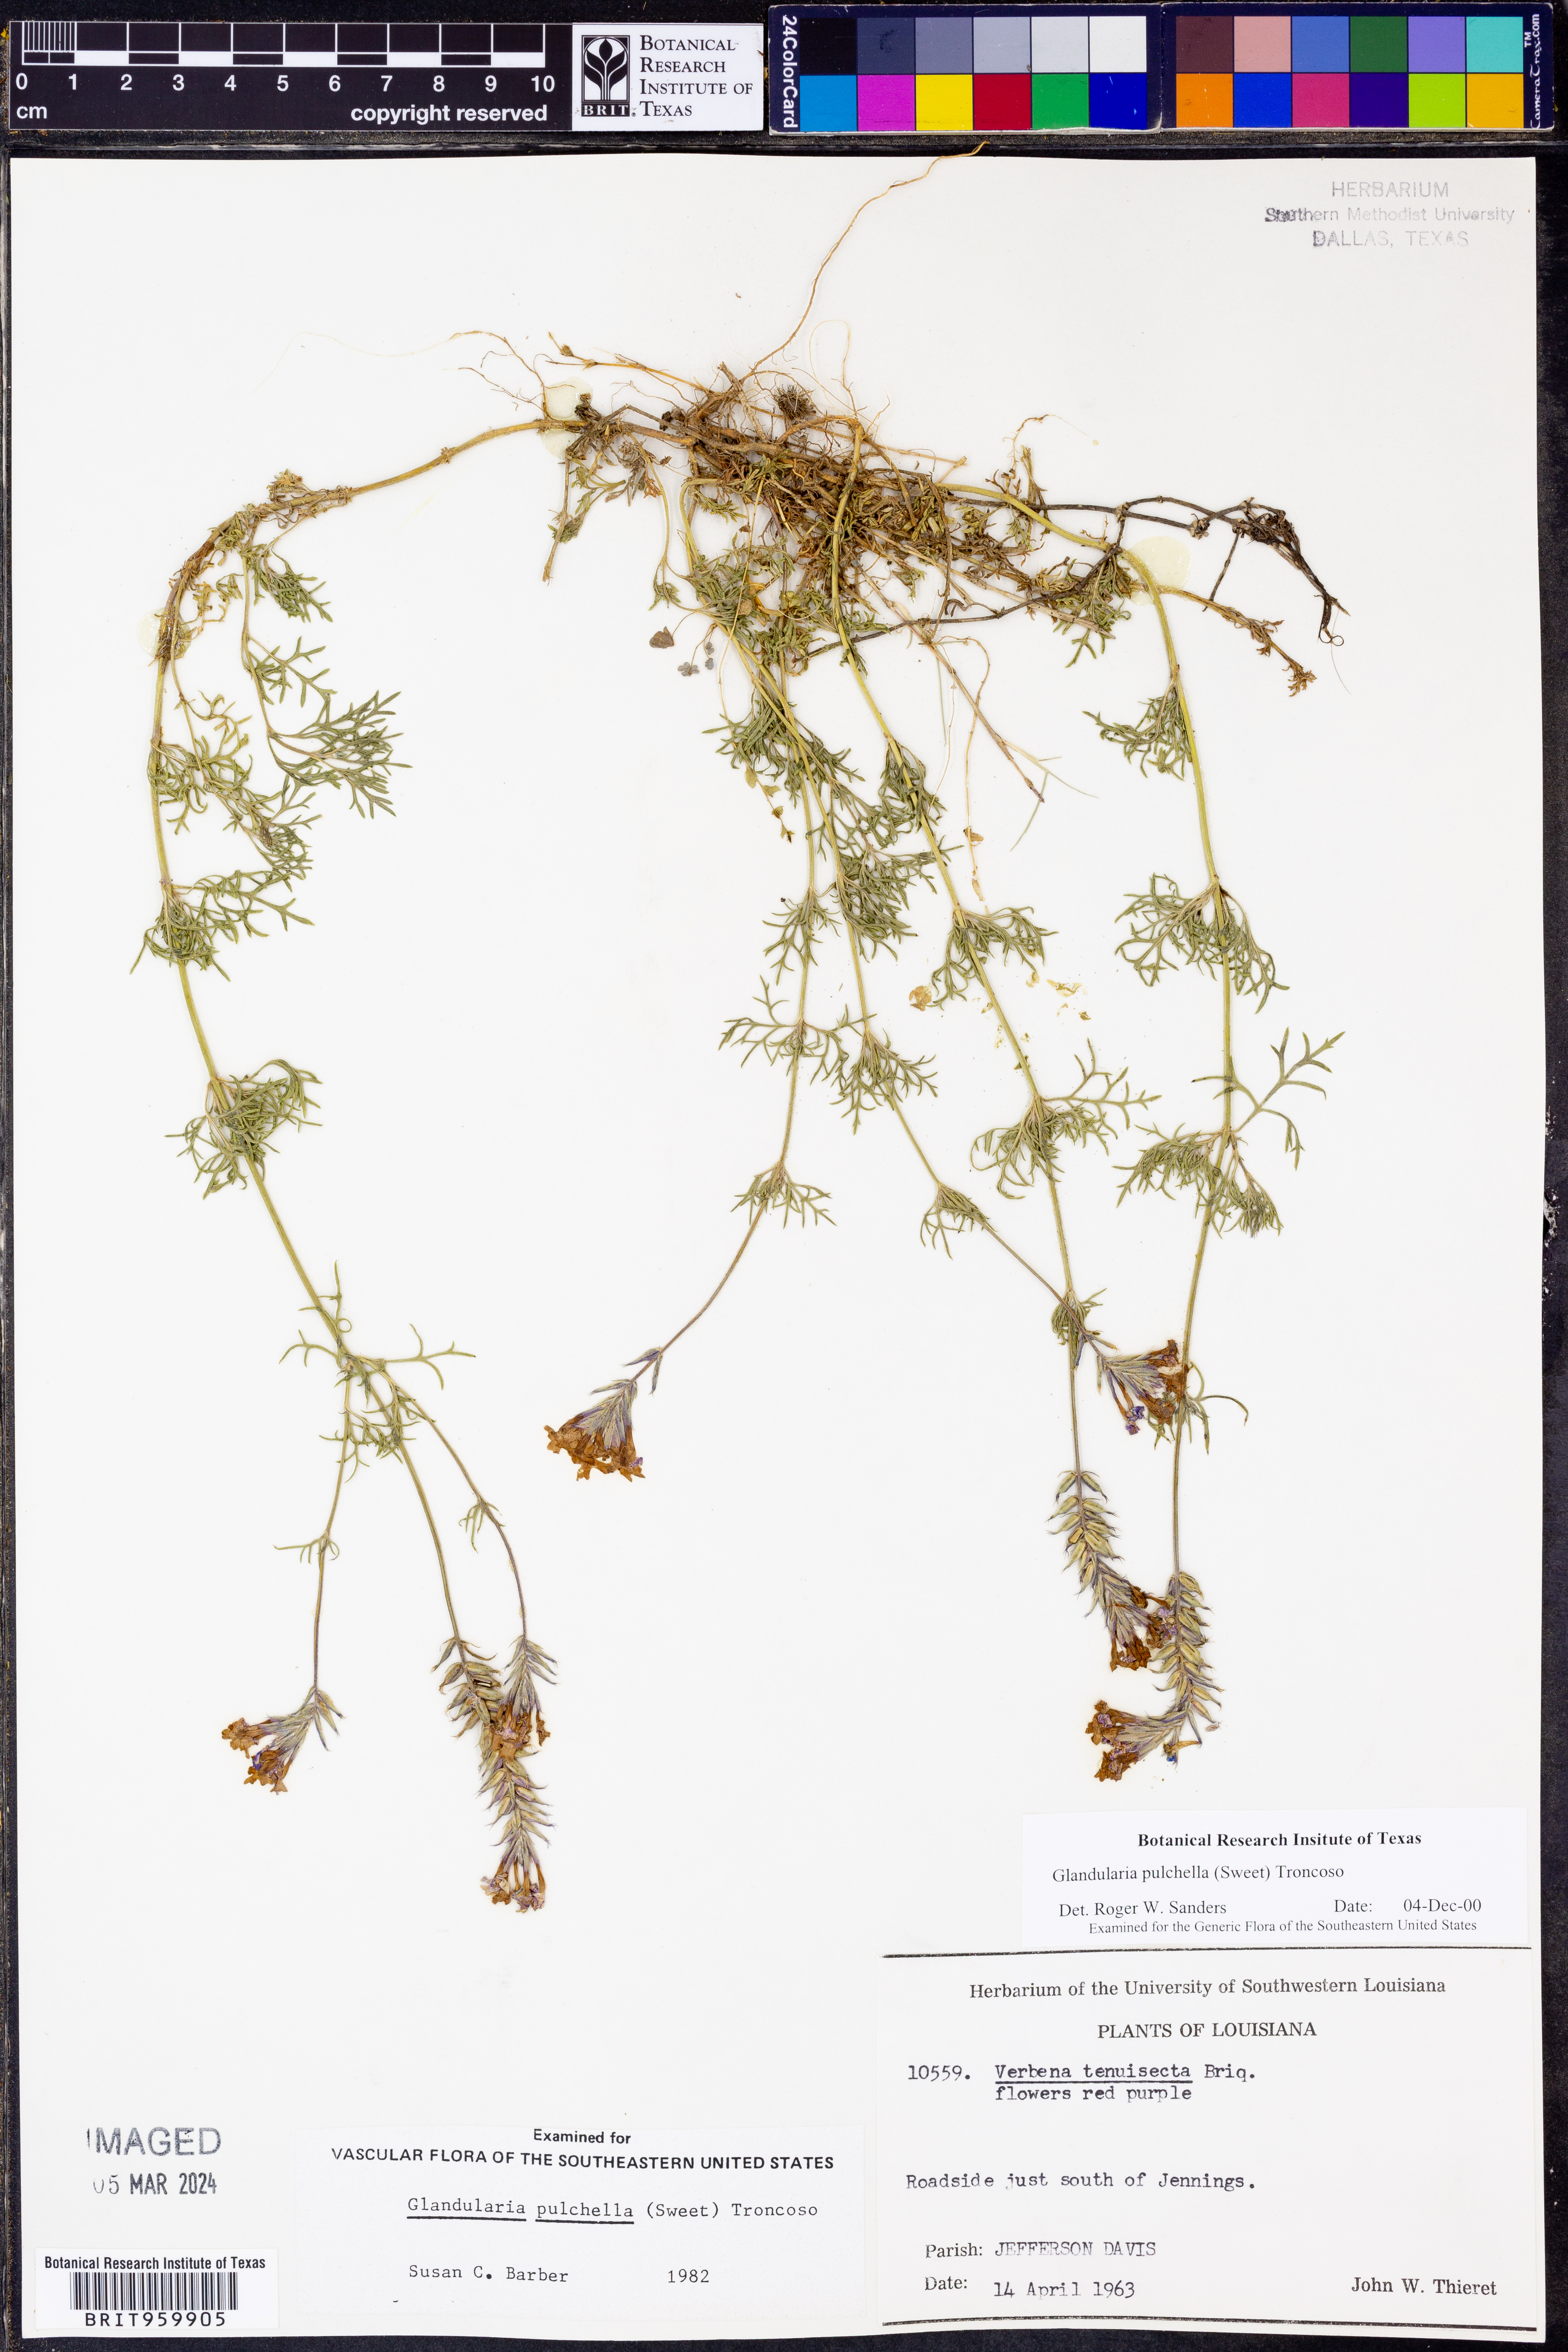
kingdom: Plantae
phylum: Tracheophyta
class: Magnoliopsida
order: Lamiales
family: Verbenaceae
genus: Verbena
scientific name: Verbena tenera
